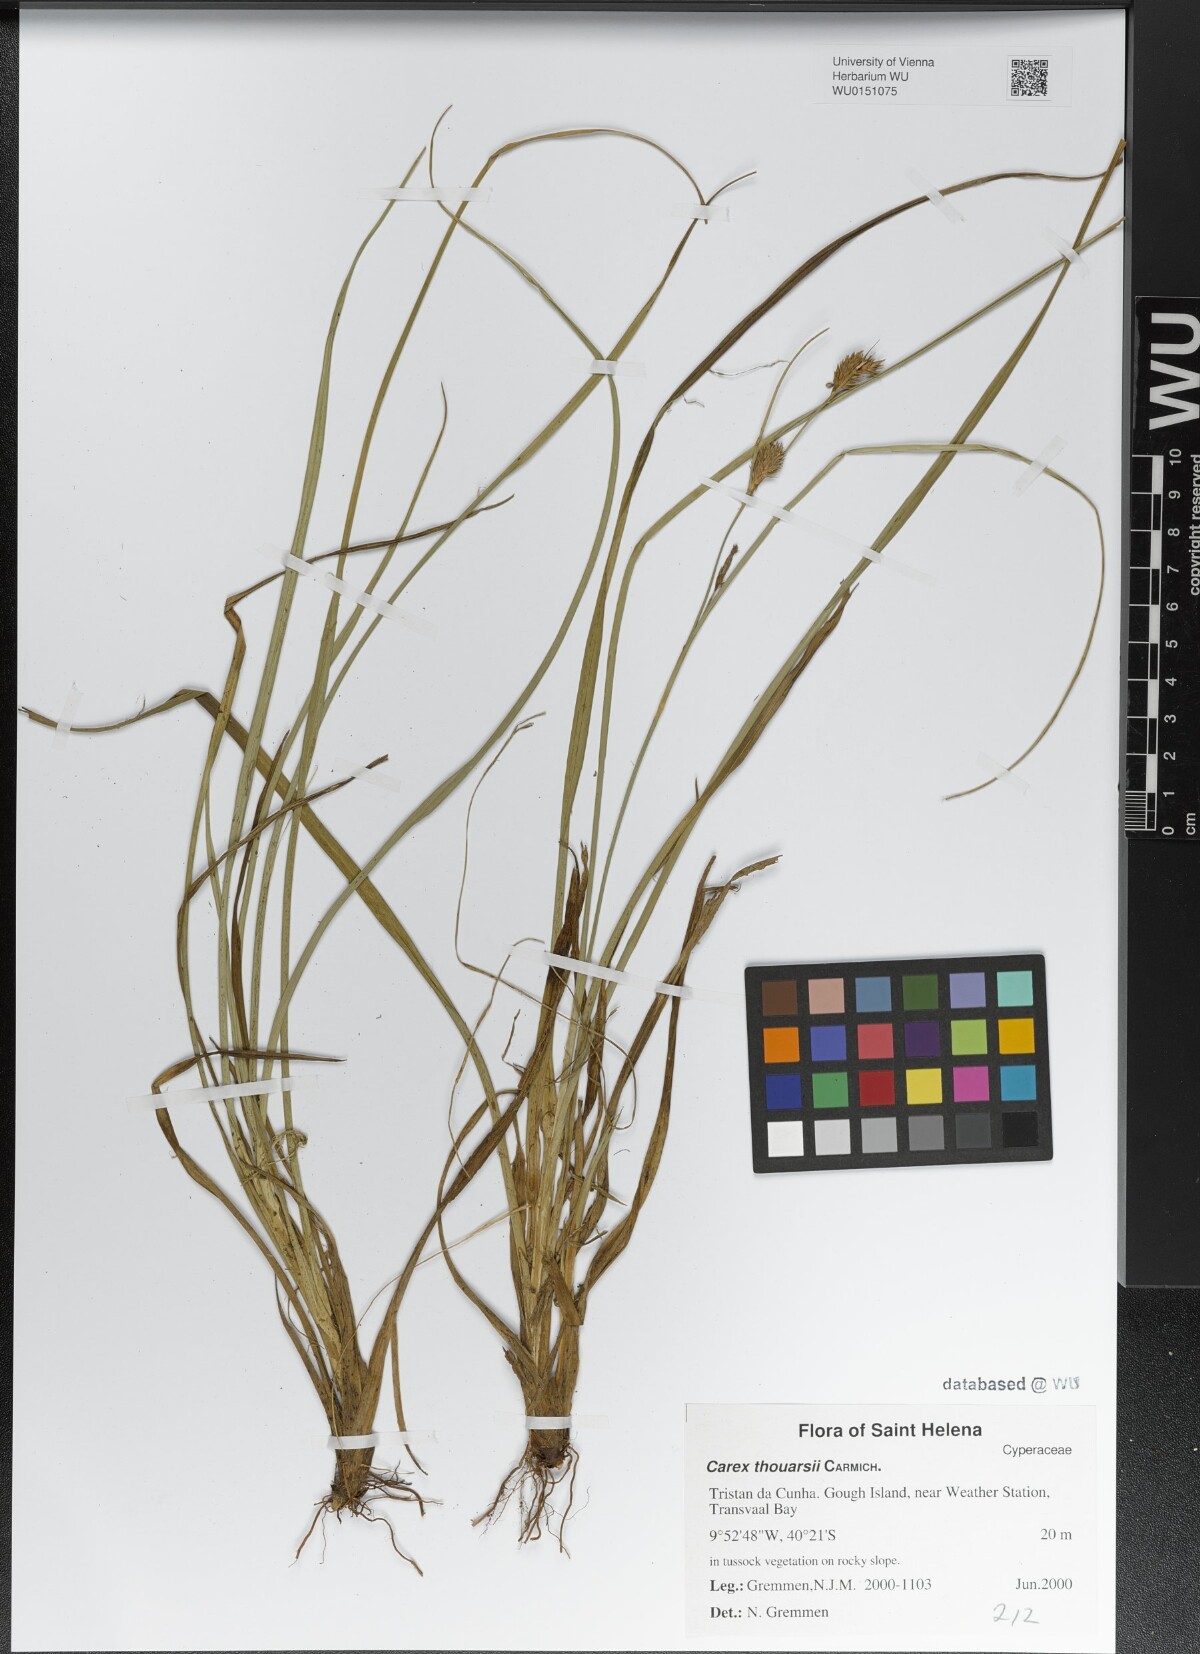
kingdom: Plantae
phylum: Tracheophyta
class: Liliopsida
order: Poales
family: Cyperaceae
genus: Carex
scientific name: Carex thouarsii
